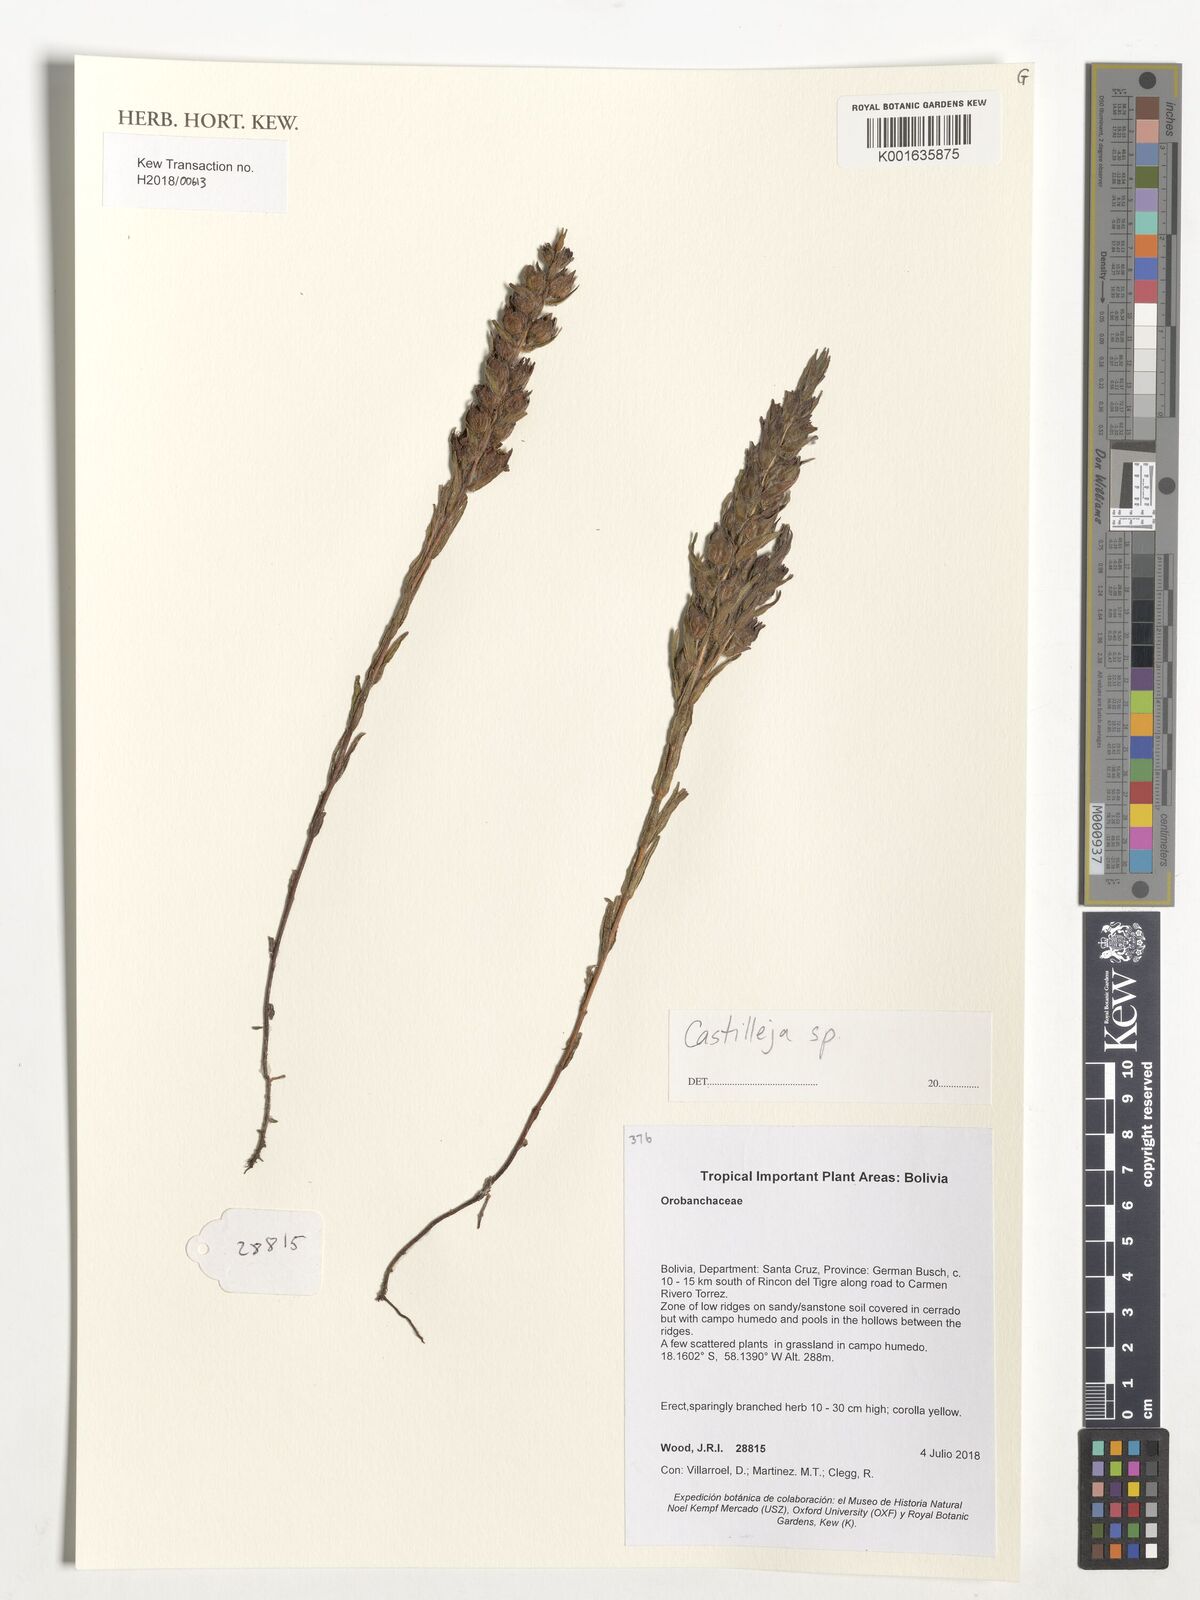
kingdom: Plantae
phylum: Tracheophyta
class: Magnoliopsida
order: Lamiales
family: Orobanchaceae
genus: Castilleja
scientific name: Castilleja
